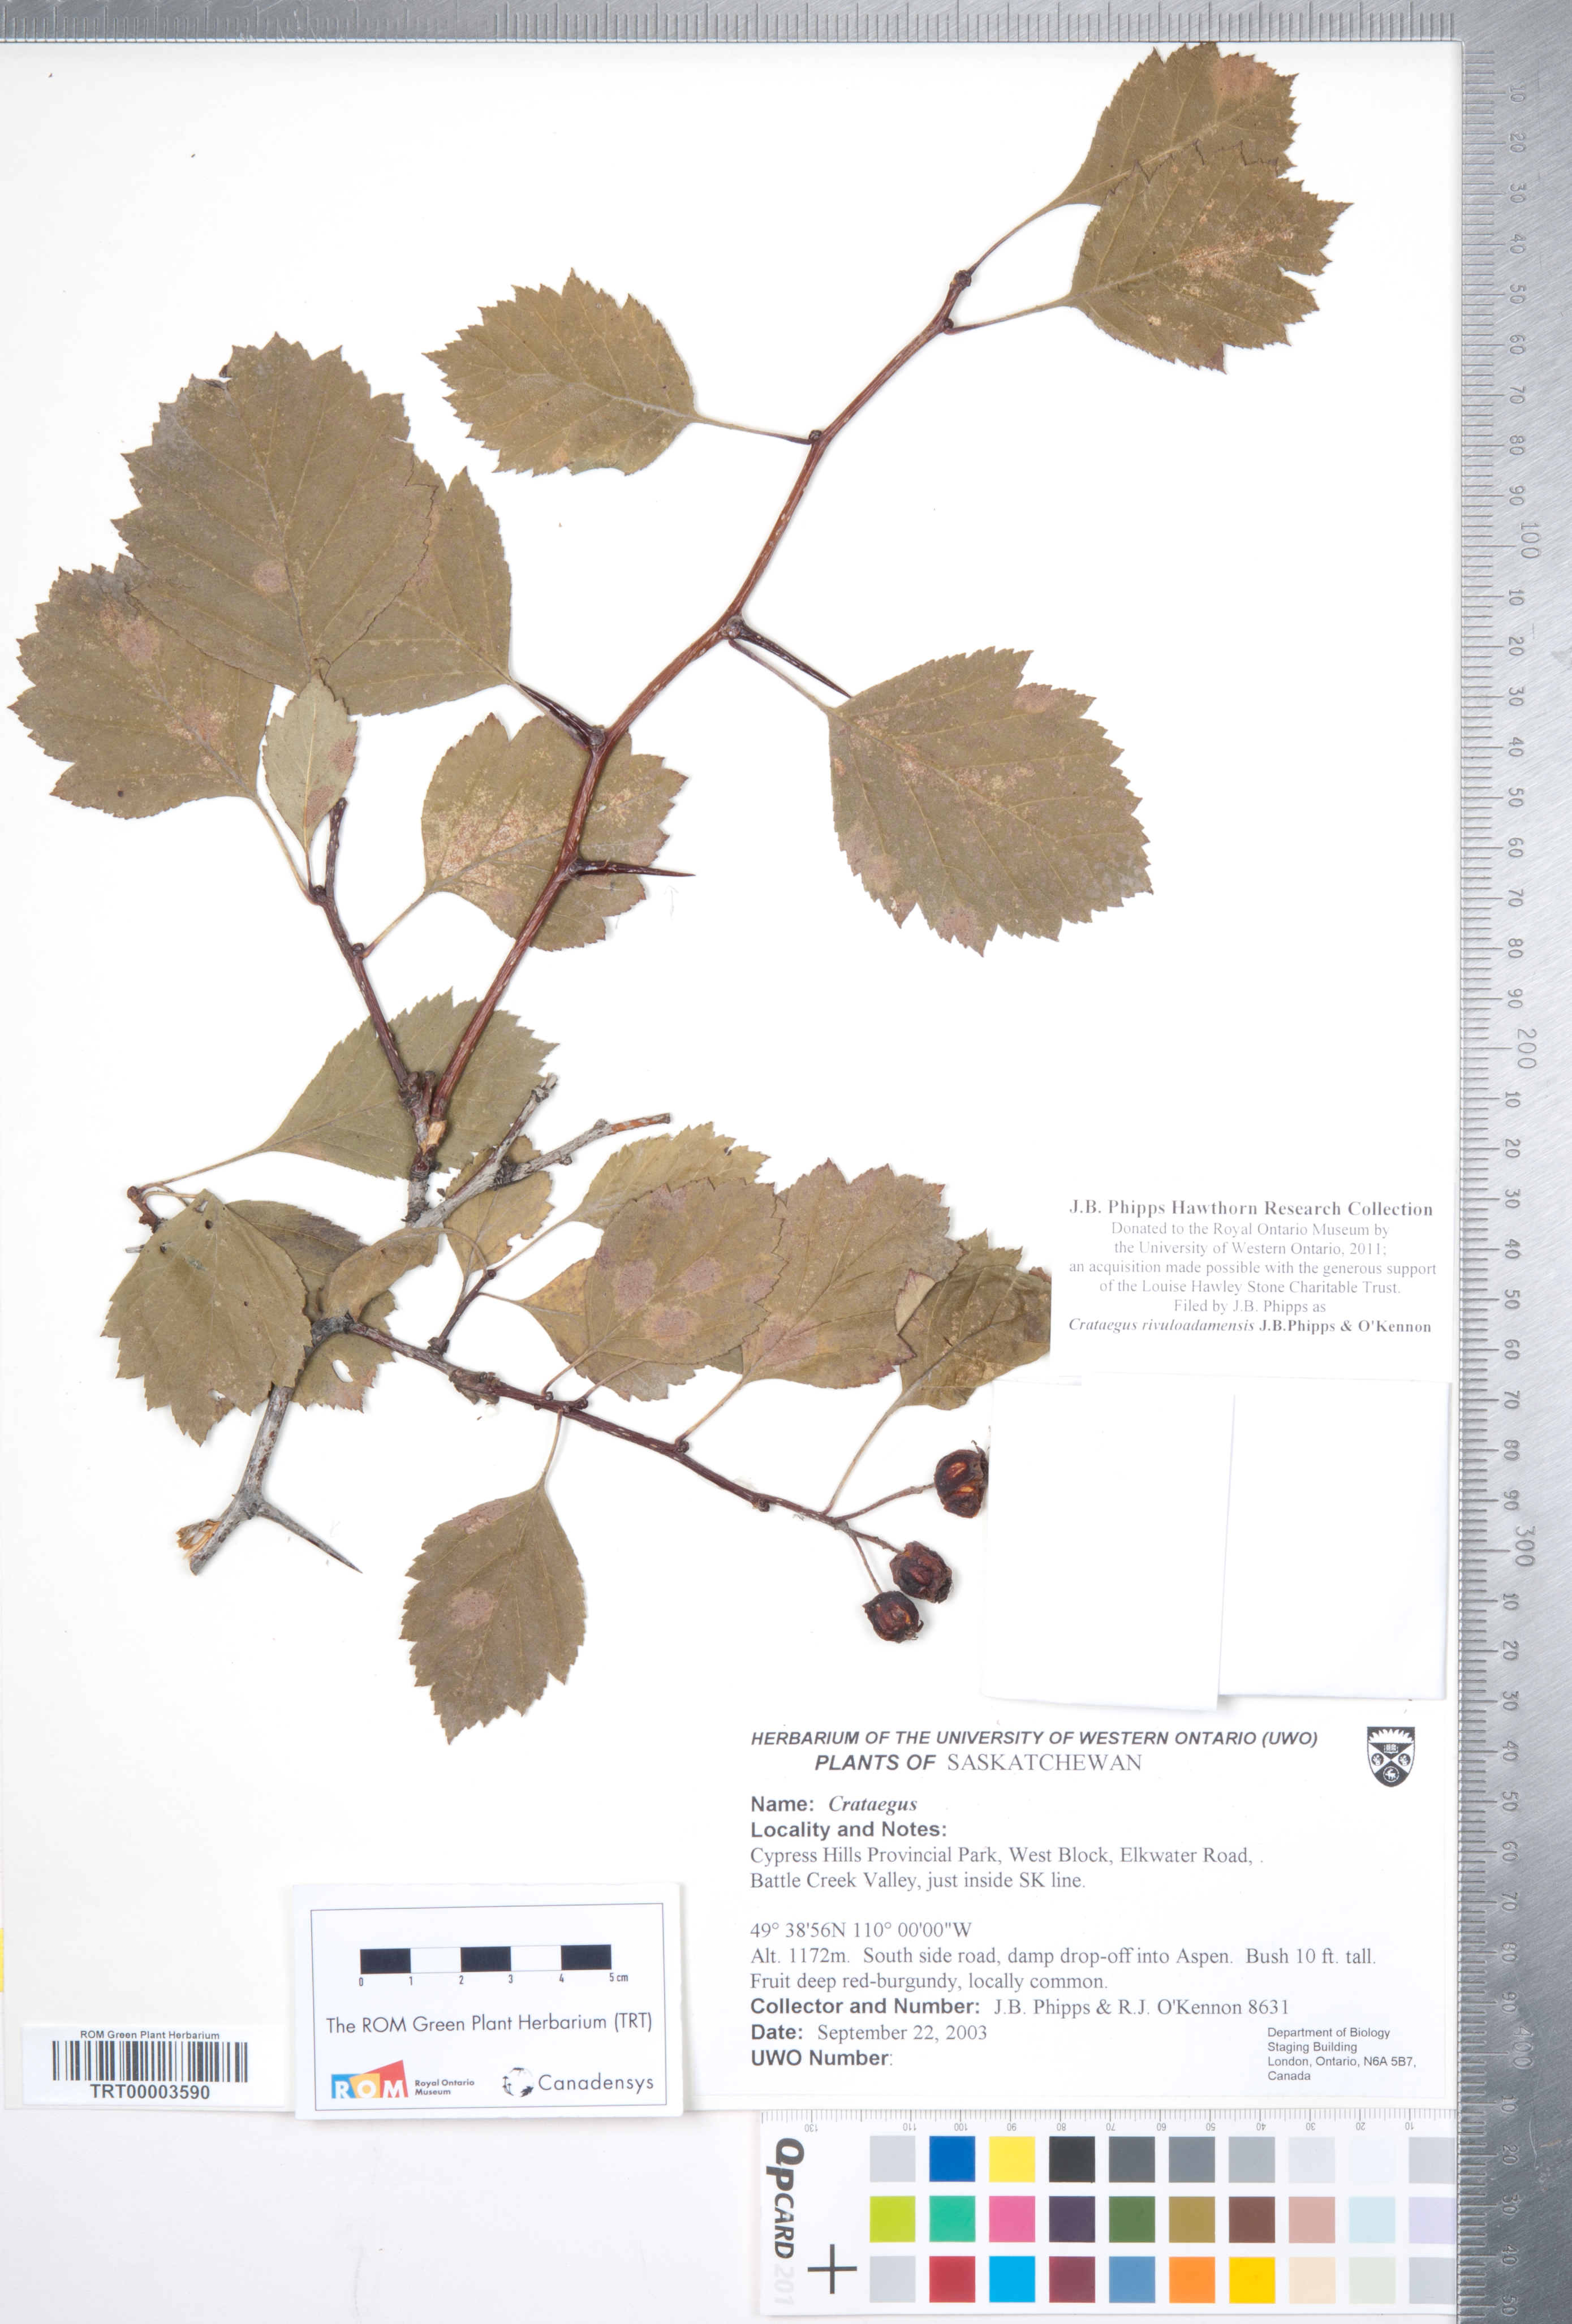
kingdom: Plantae
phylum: Tracheophyta
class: Magnoliopsida
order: Rosales
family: Rosaceae
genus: Crataegus
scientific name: Crataegus rivuloadamensis
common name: Adams creek hawthorn
